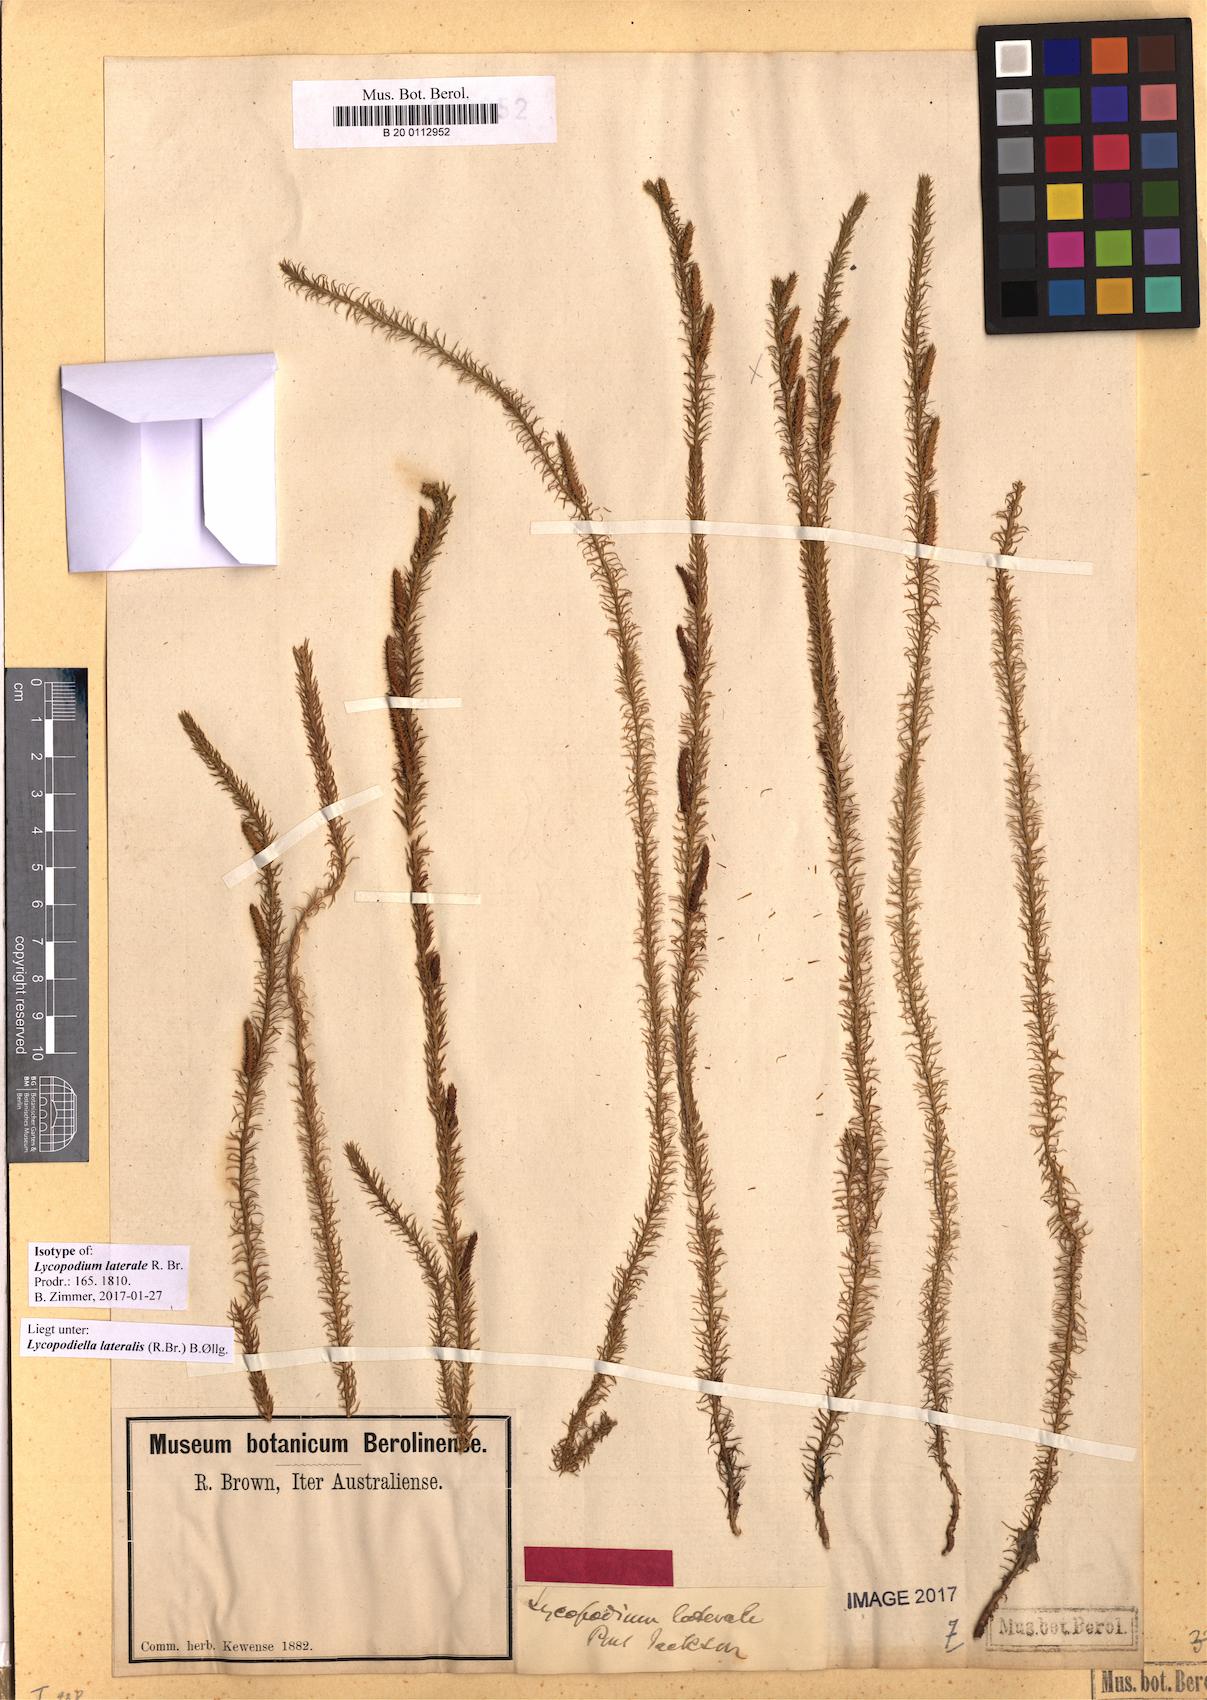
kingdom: Plantae
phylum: Tracheophyta
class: Lycopodiopsida
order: Lycopodiales
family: Lycopodiaceae
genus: Lateristachys
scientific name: Lateristachys lateralis
